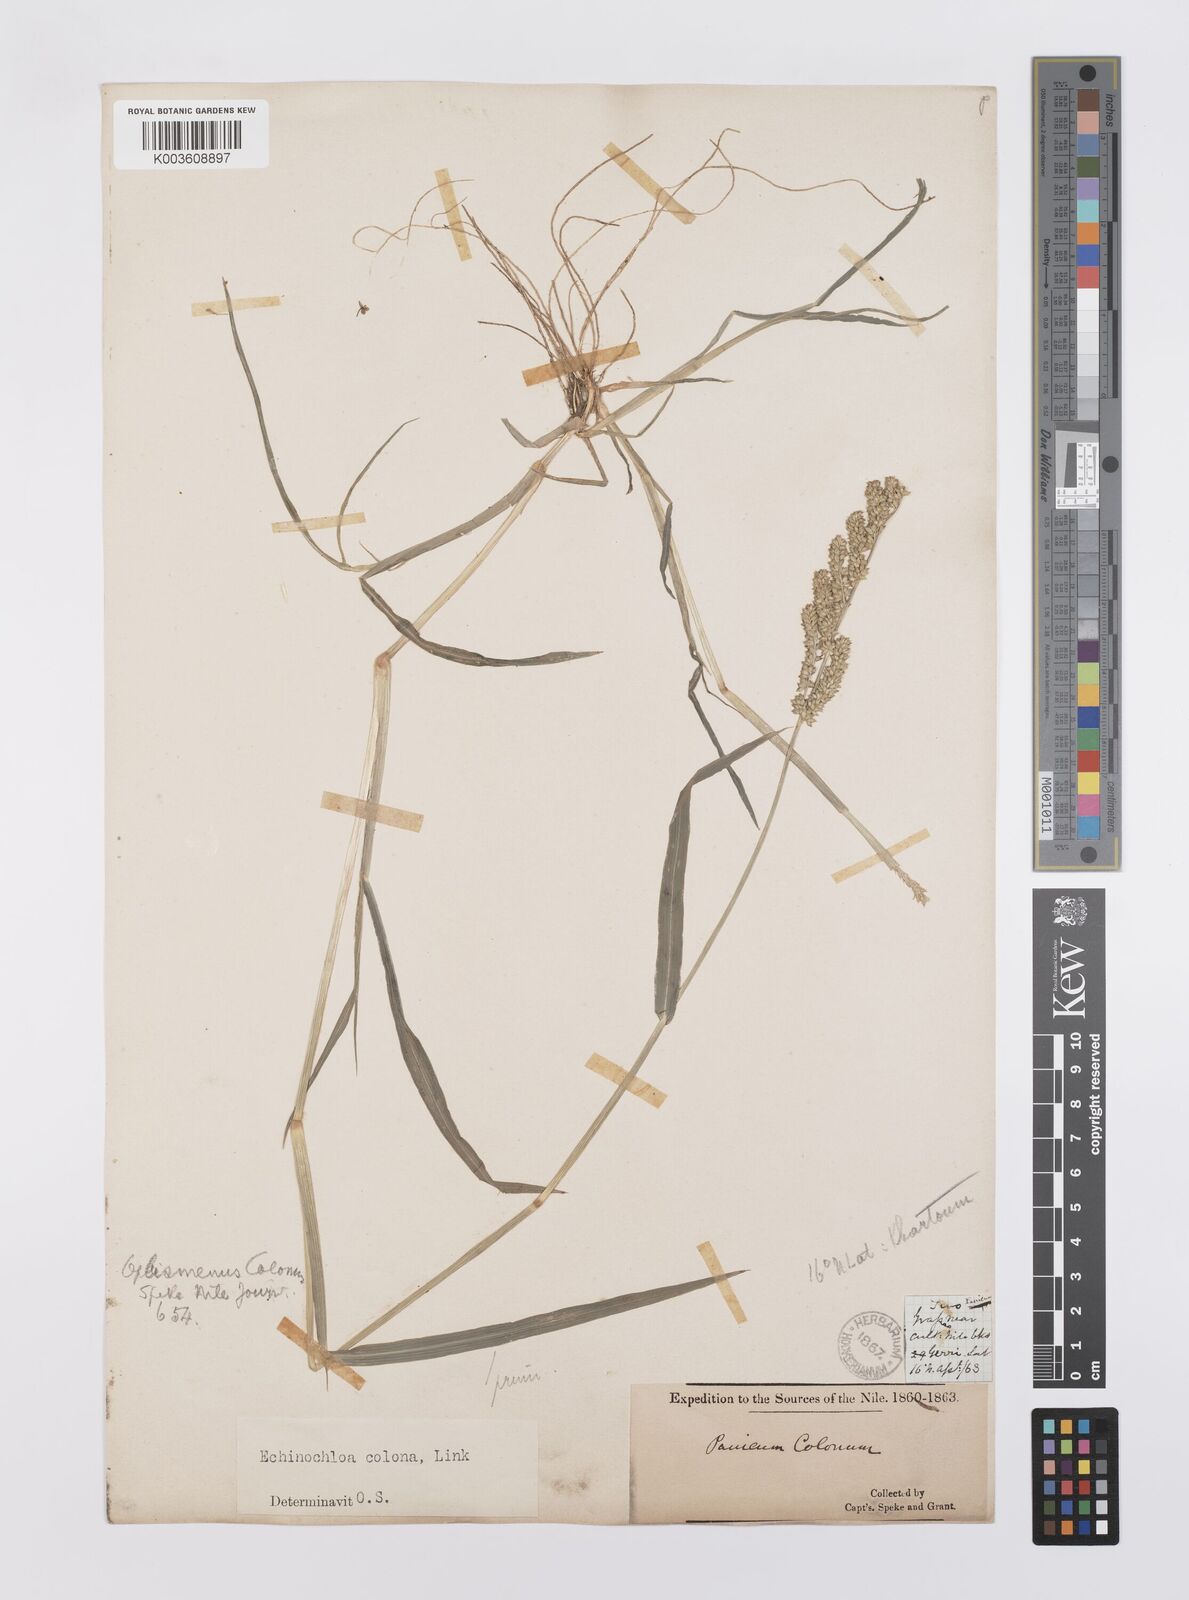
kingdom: Plantae
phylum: Tracheophyta
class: Liliopsida
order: Poales
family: Poaceae
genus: Echinochloa
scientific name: Echinochloa colonum
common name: Jungle rice
